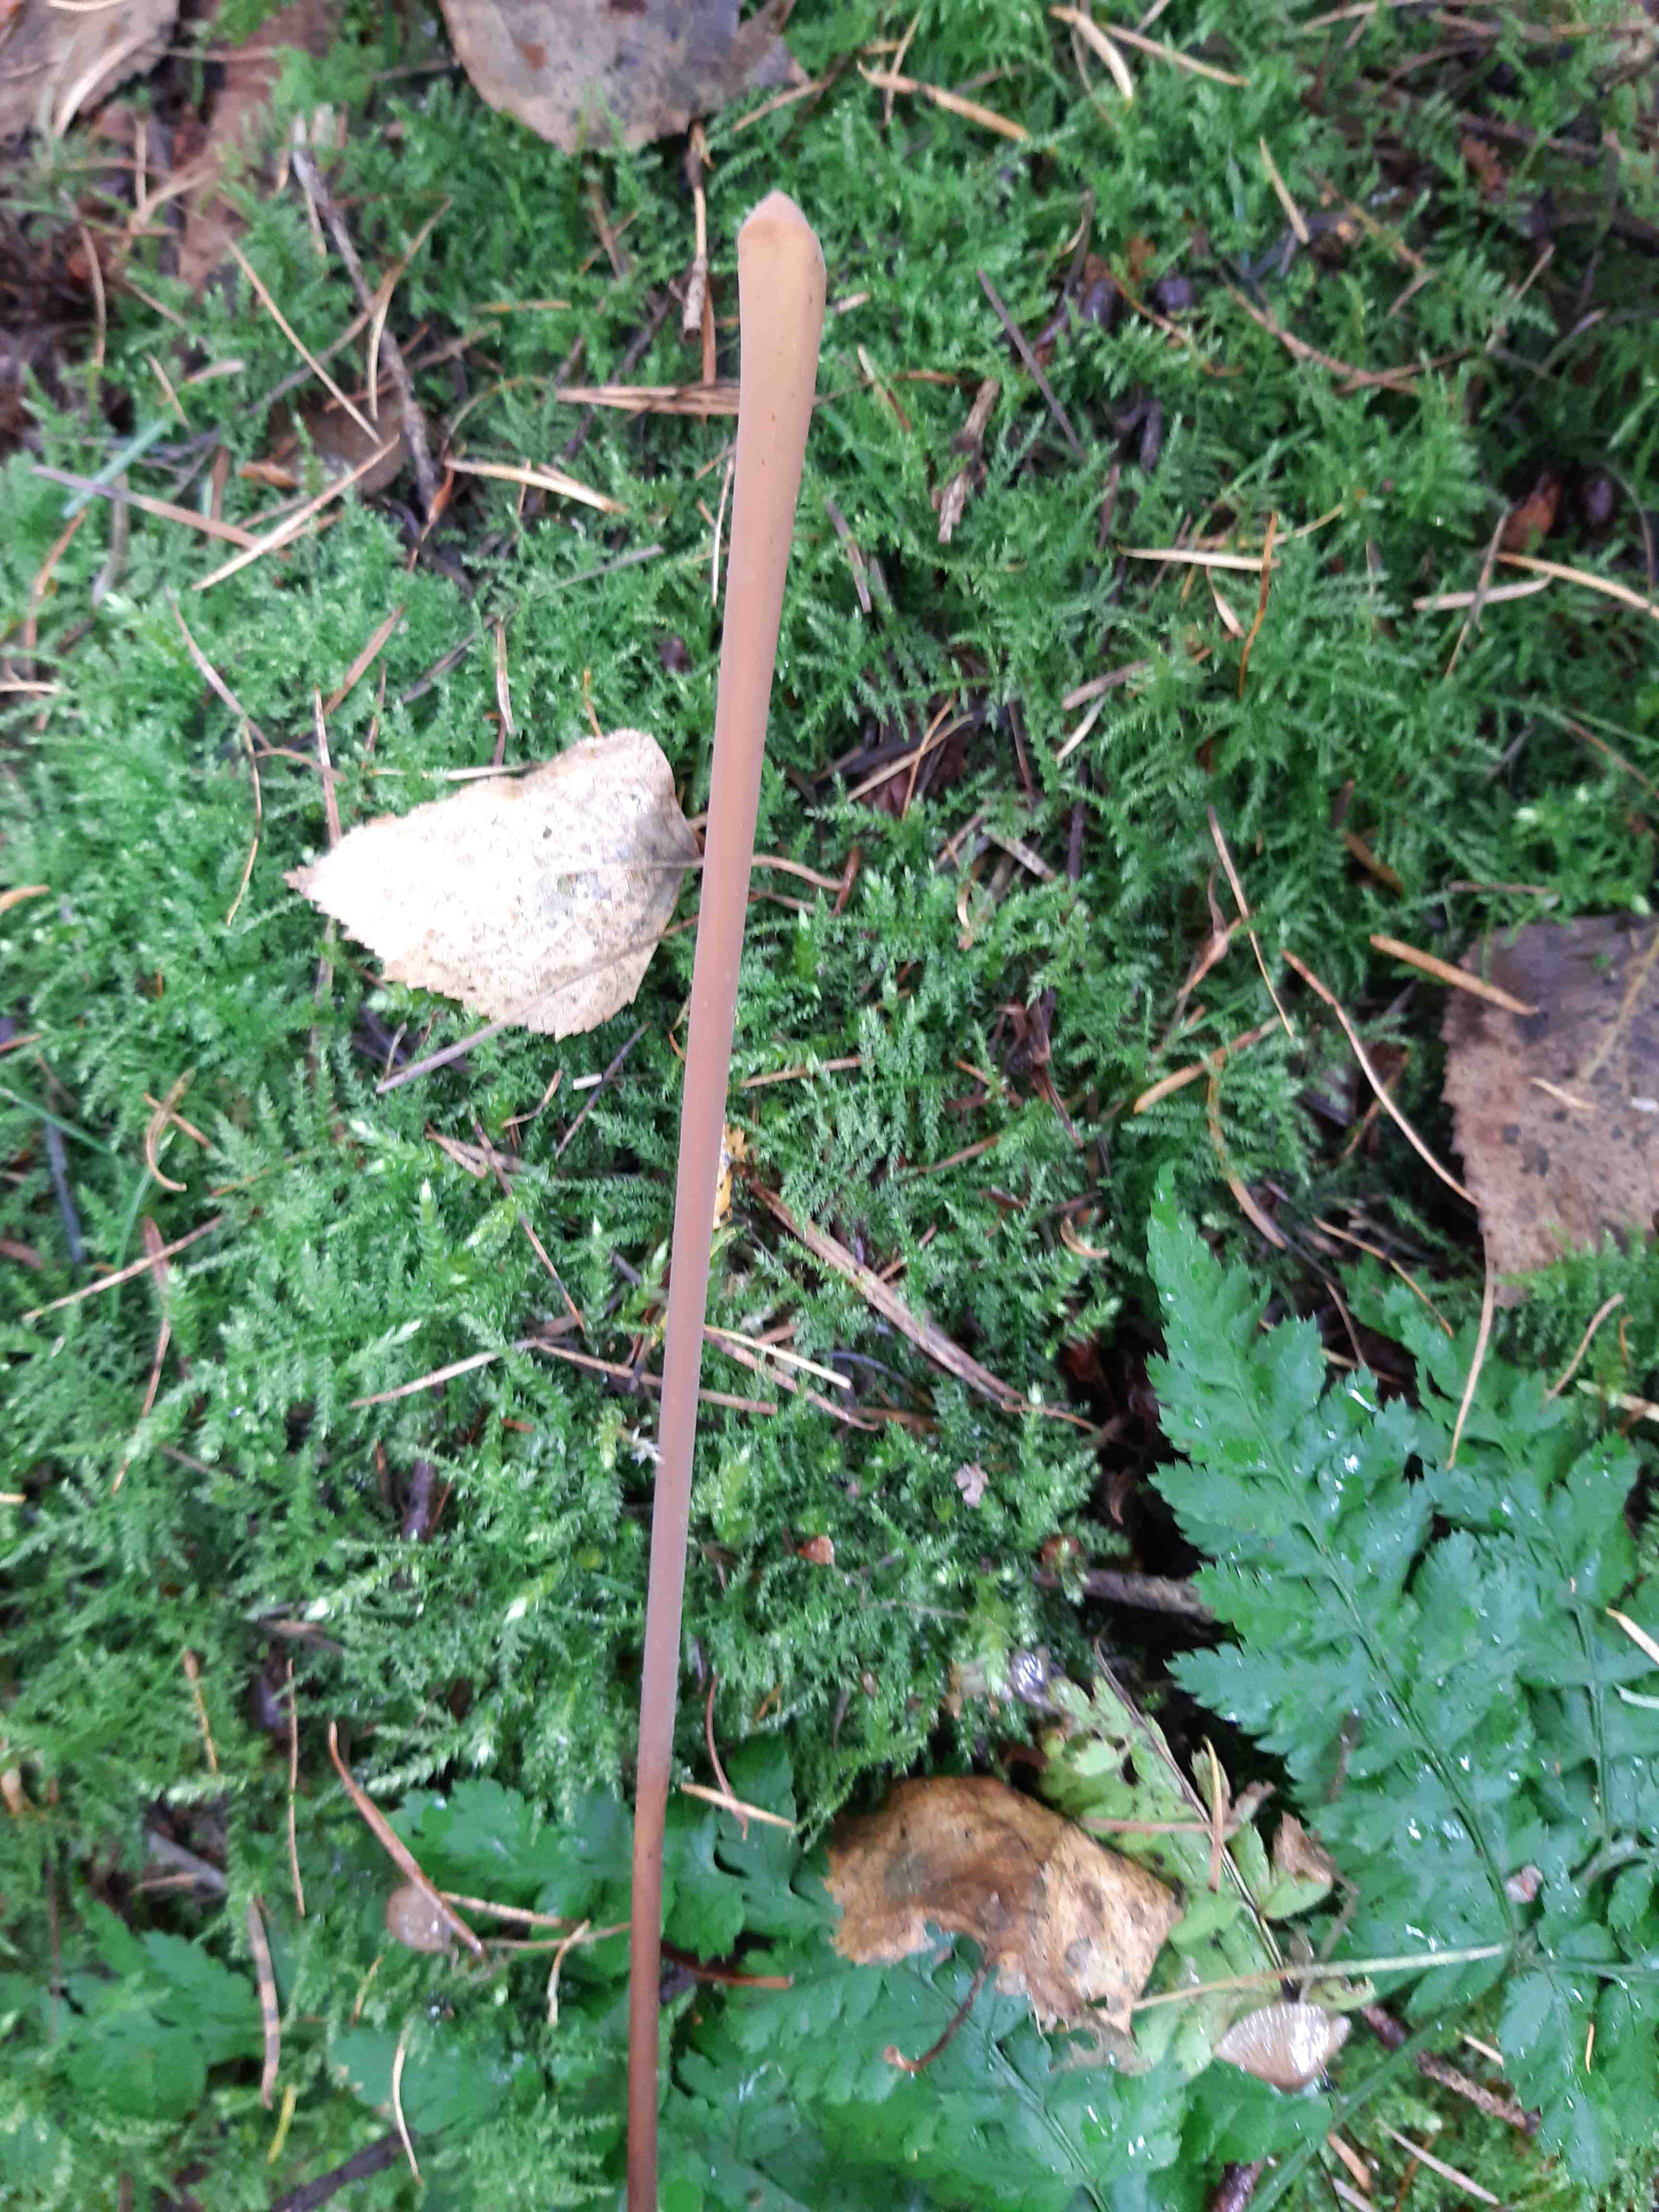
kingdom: Fungi
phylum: Basidiomycota
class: Agaricomycetes
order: Agaricales
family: Typhulaceae
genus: Typhula
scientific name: Typhula fistulosa
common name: pibet rørkølle
